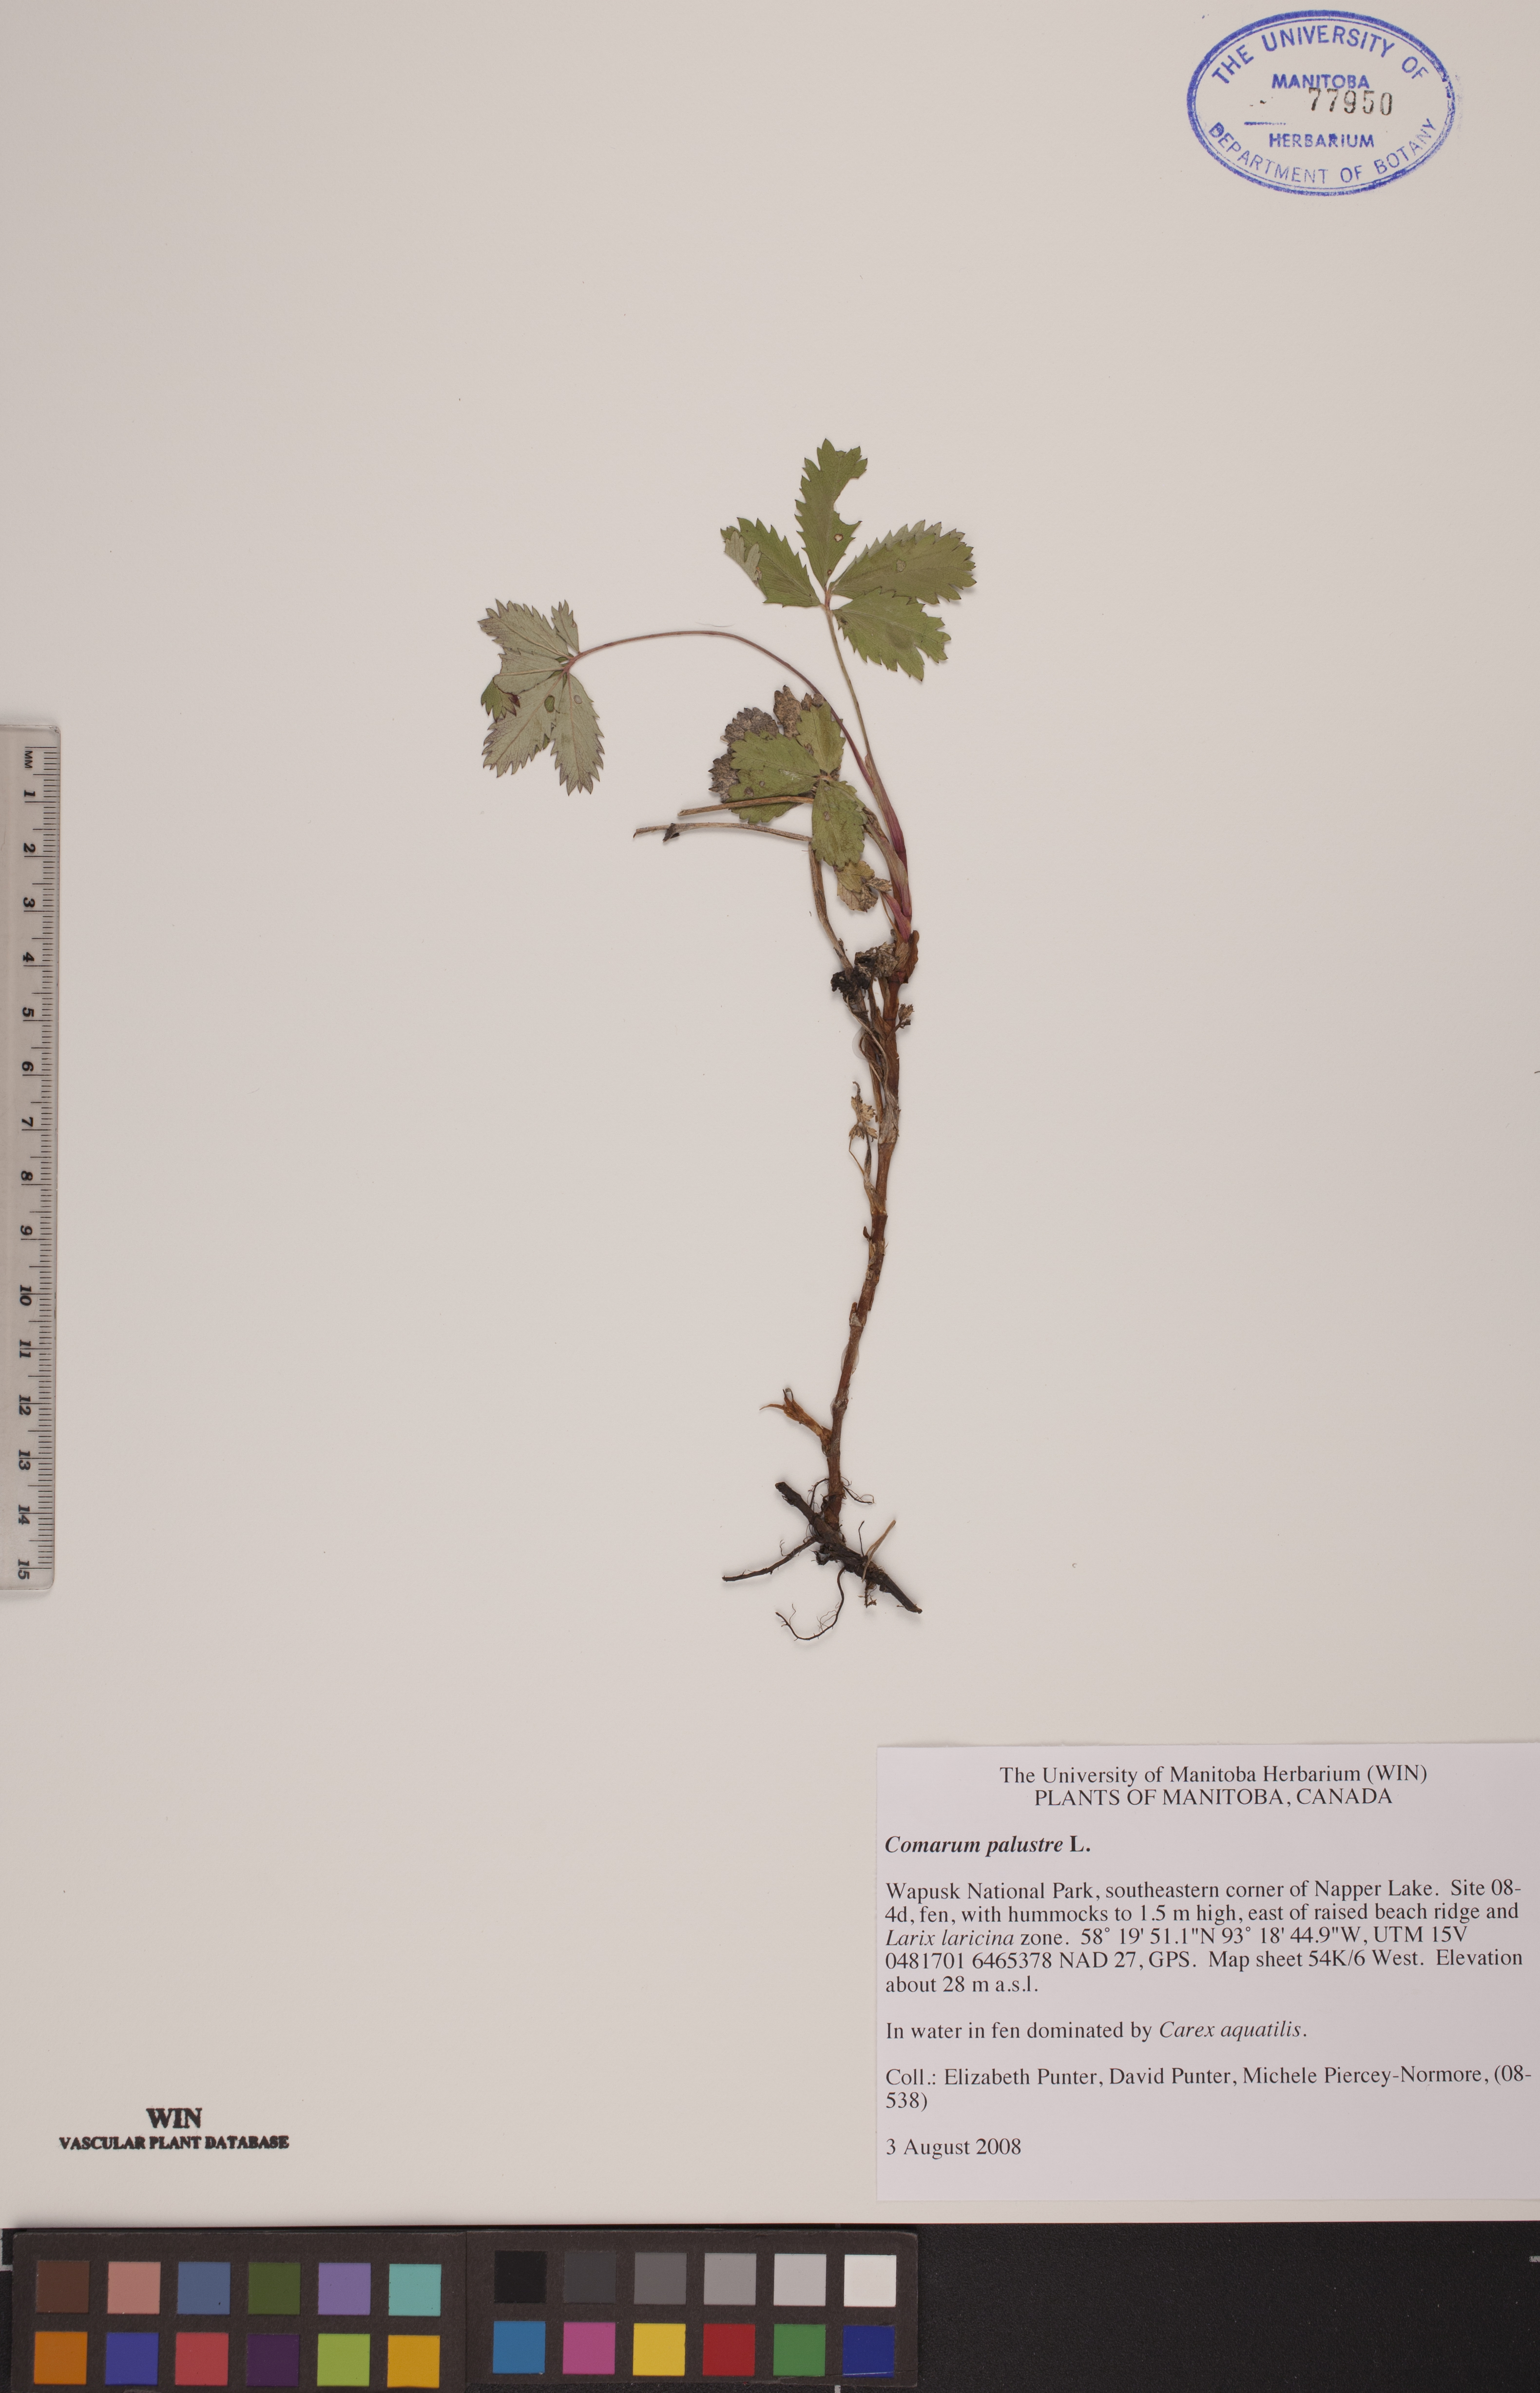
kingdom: Plantae
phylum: Tracheophyta
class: Magnoliopsida
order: Rosales
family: Rosaceae
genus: Comarum
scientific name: Comarum palustre
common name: Marsh cinquefoil
